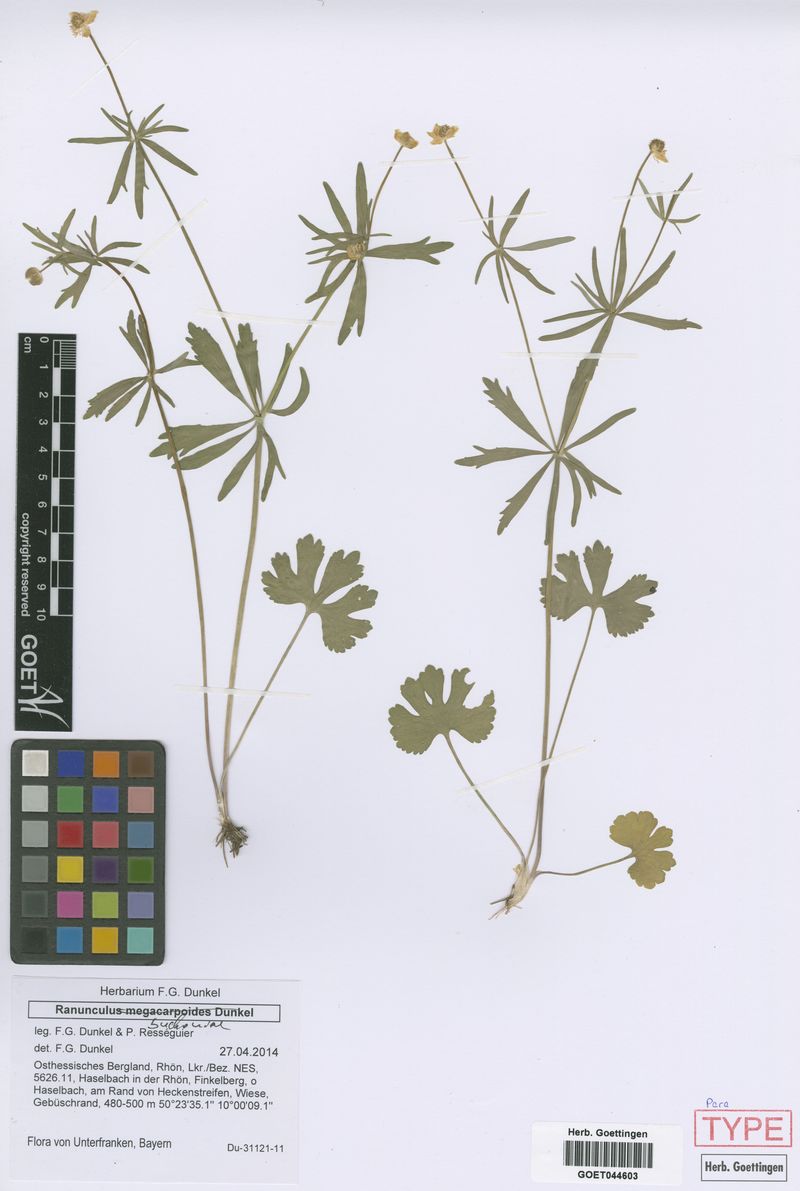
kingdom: Plantae
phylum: Tracheophyta
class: Magnoliopsida
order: Ranunculales
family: Ranunculaceae
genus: Ranunculus
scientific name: Ranunculus buchoniae
